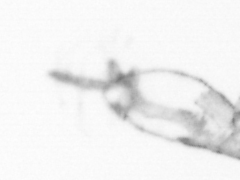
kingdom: Animalia
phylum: Arthropoda
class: Copepoda
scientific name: Copepoda
